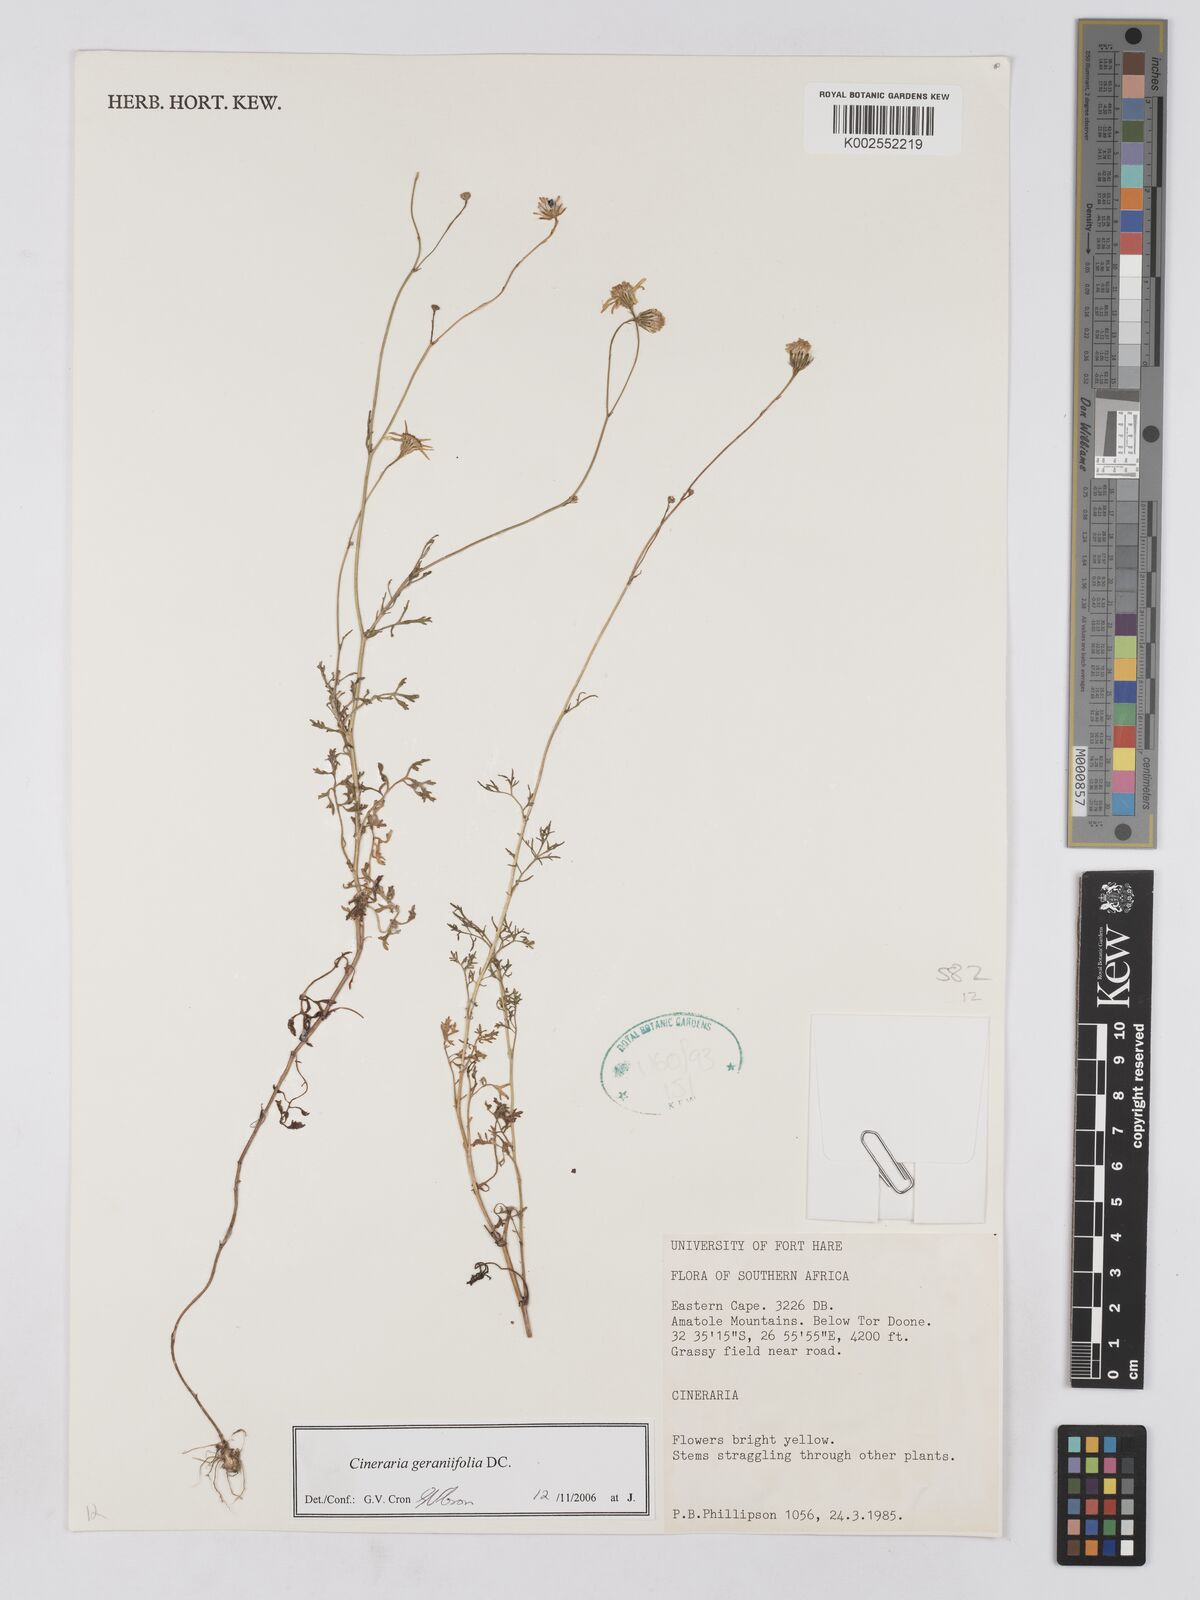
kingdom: Plantae
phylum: Tracheophyta
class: Magnoliopsida
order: Asterales
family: Asteraceae
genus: Cineraria
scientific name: Cineraria geraniifolia
